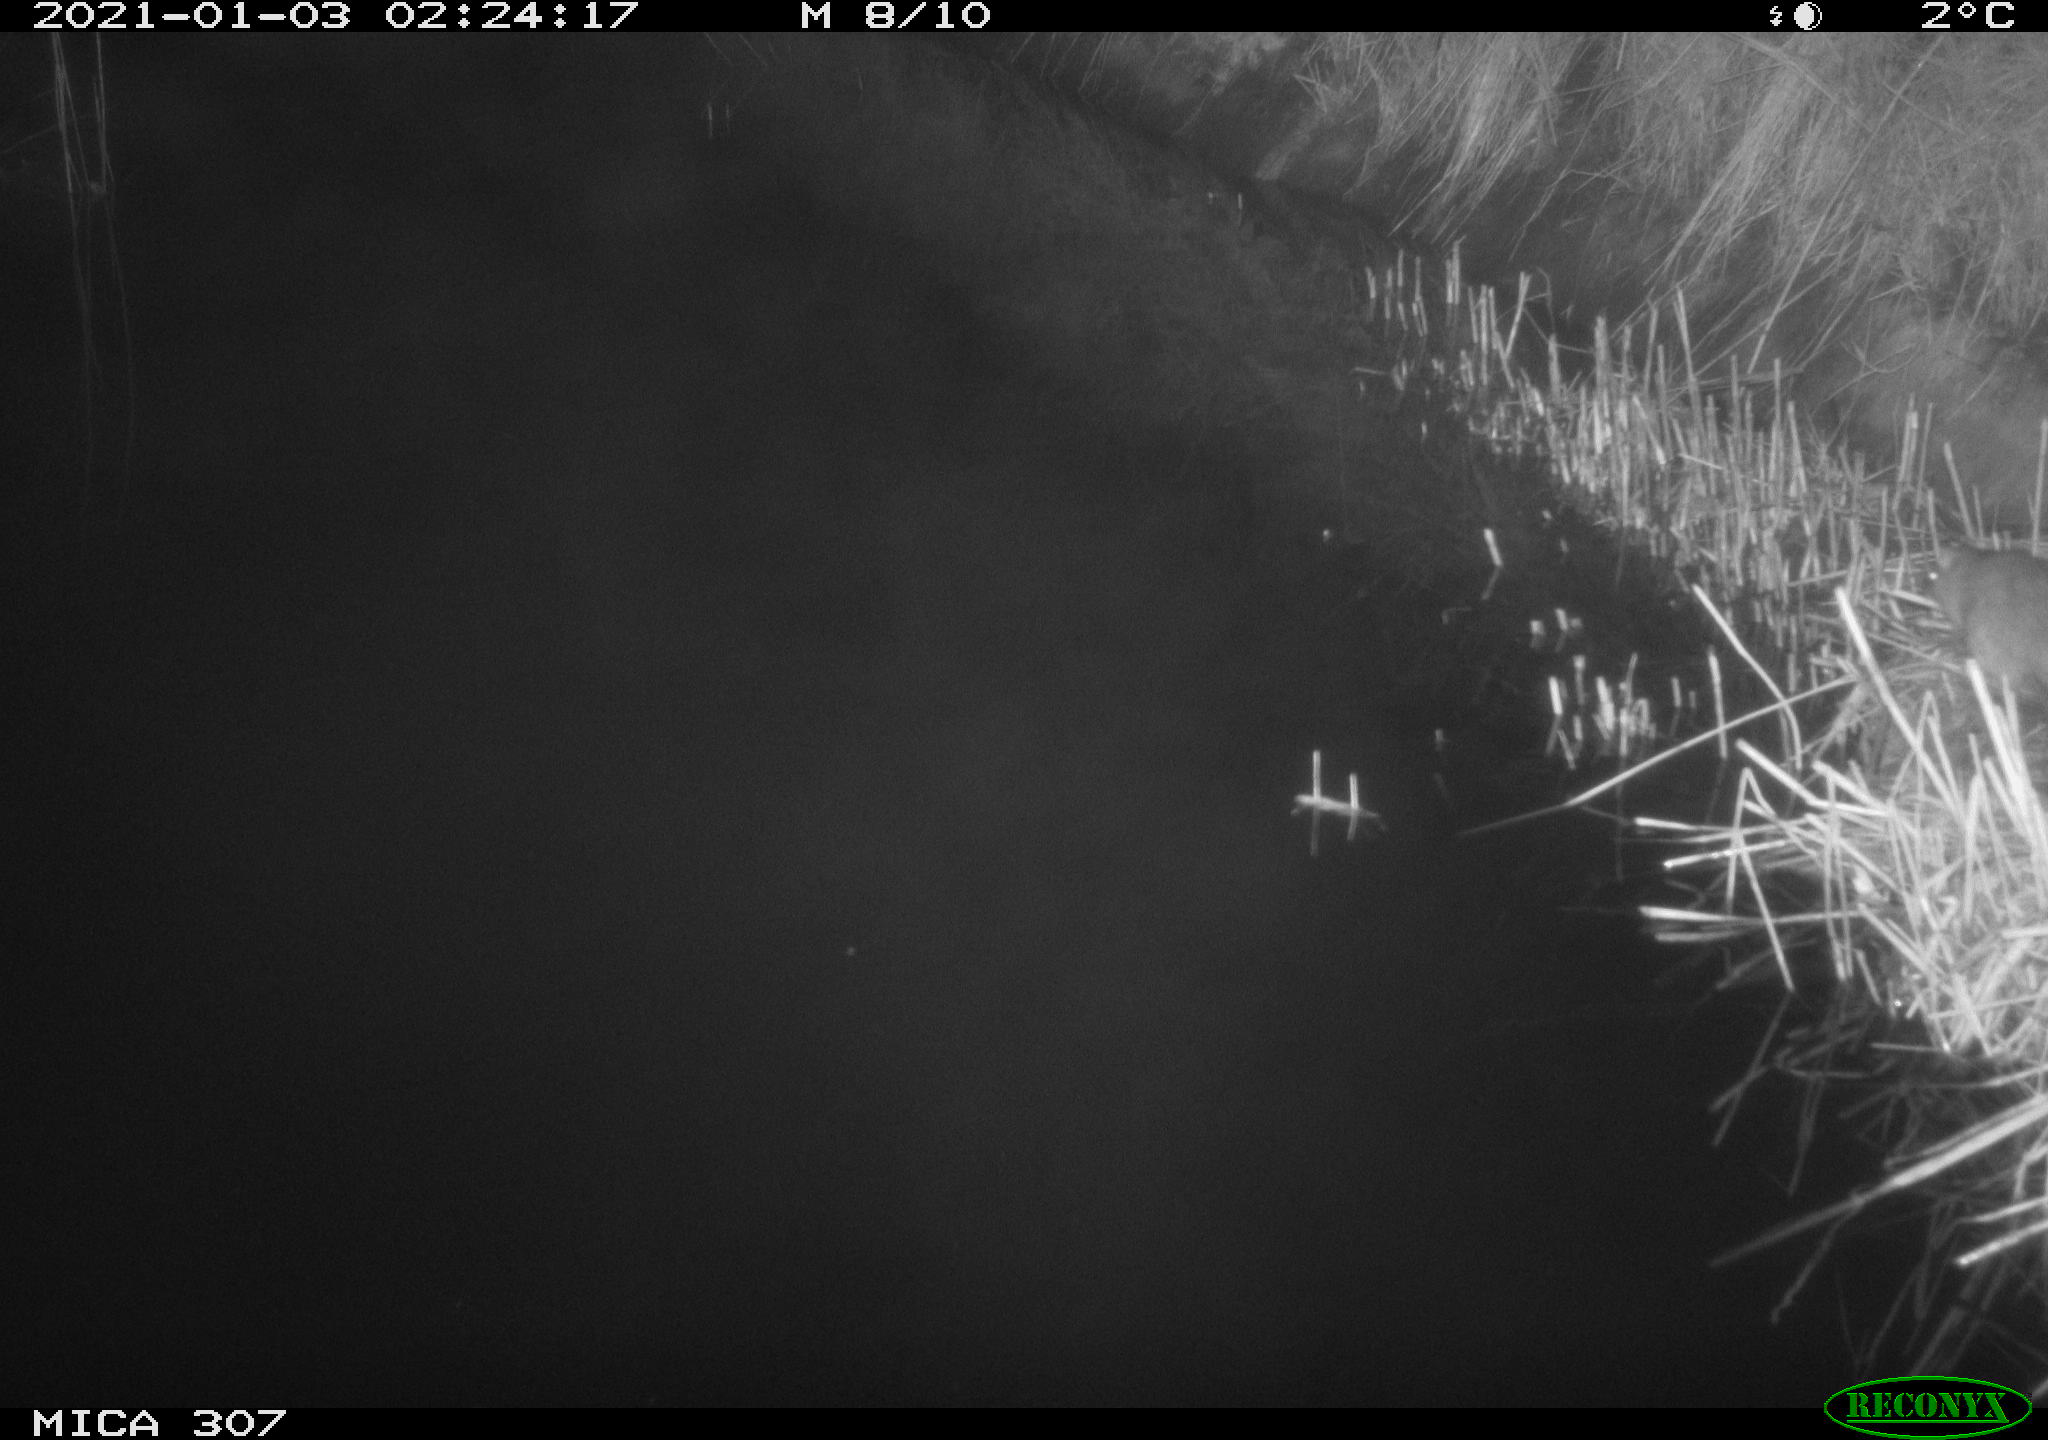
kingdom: Animalia
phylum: Chordata
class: Mammalia
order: Rodentia
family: Muridae
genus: Rattus
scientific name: Rattus norvegicus
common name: Brown rat
